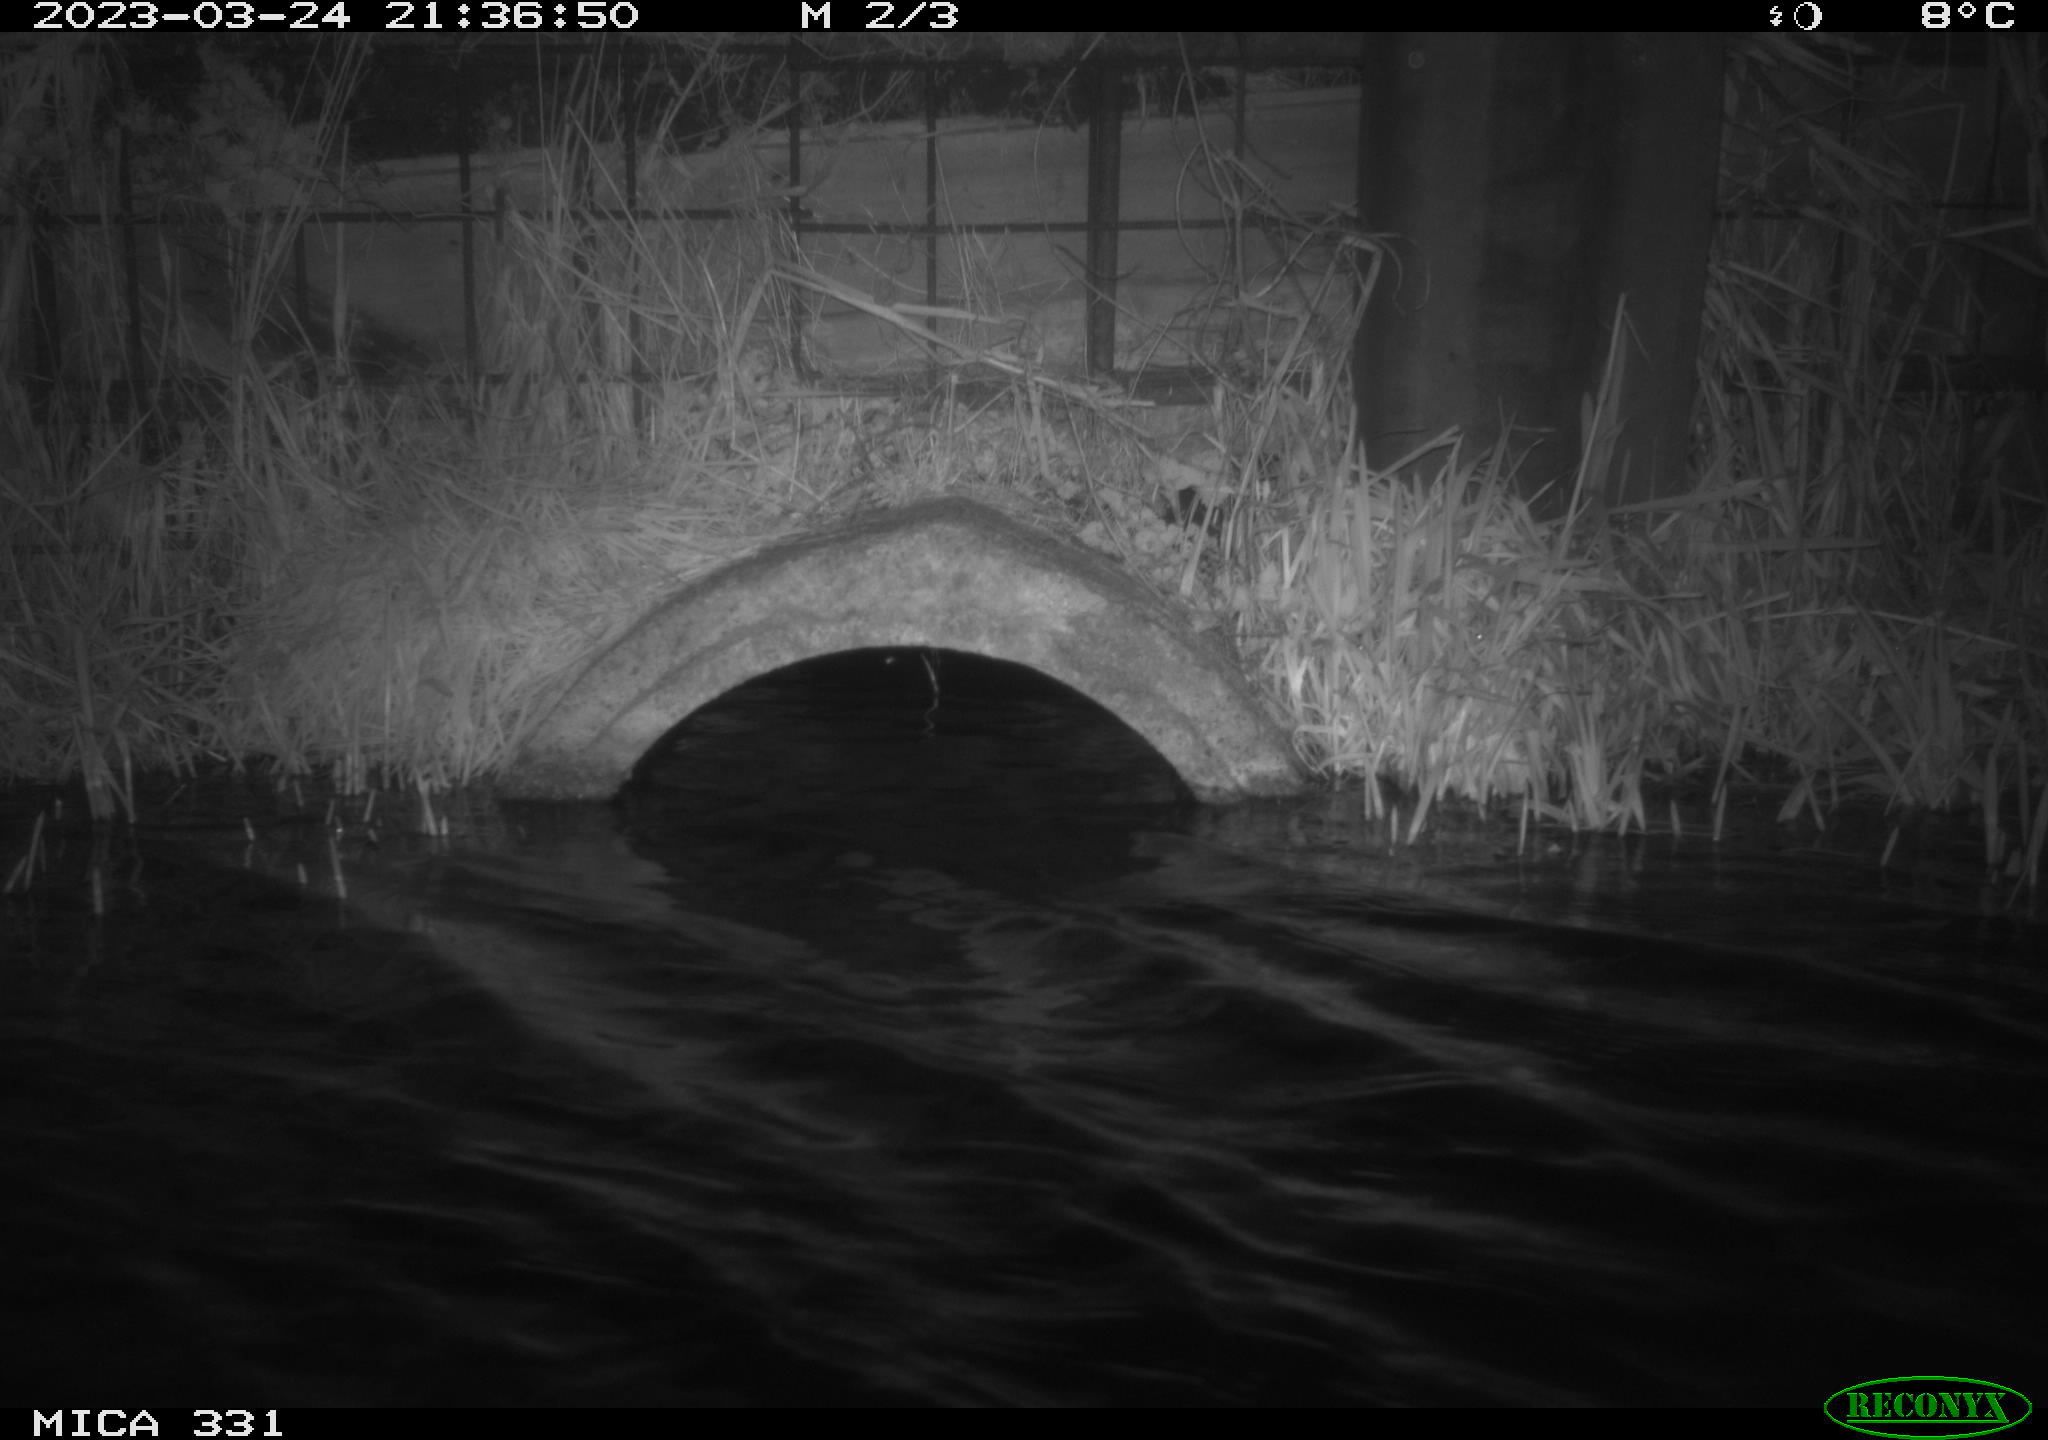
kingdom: Animalia
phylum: Chordata
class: Mammalia
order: Rodentia
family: Muridae
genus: Rattus
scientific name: Rattus norvegicus
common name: Brown rat
